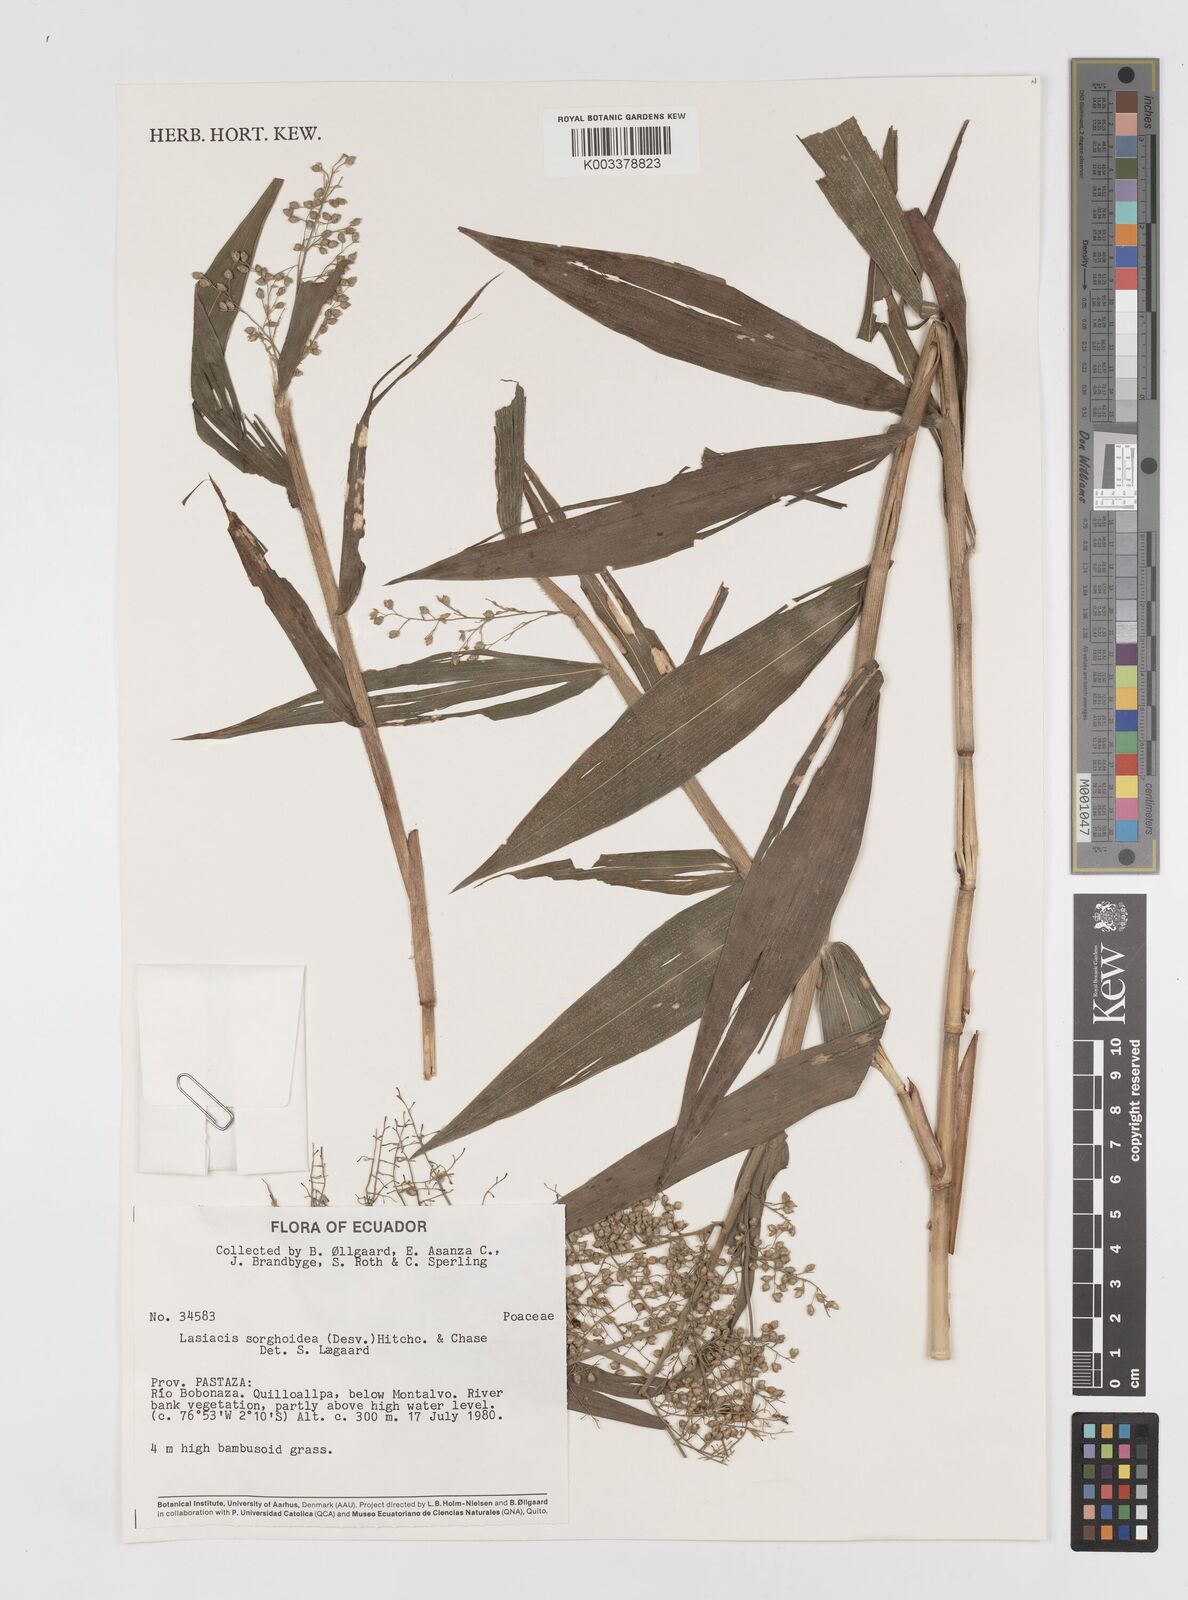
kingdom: Plantae
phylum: Tracheophyta
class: Liliopsida
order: Poales
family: Poaceae
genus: Lasiacis
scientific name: Lasiacis maculata
